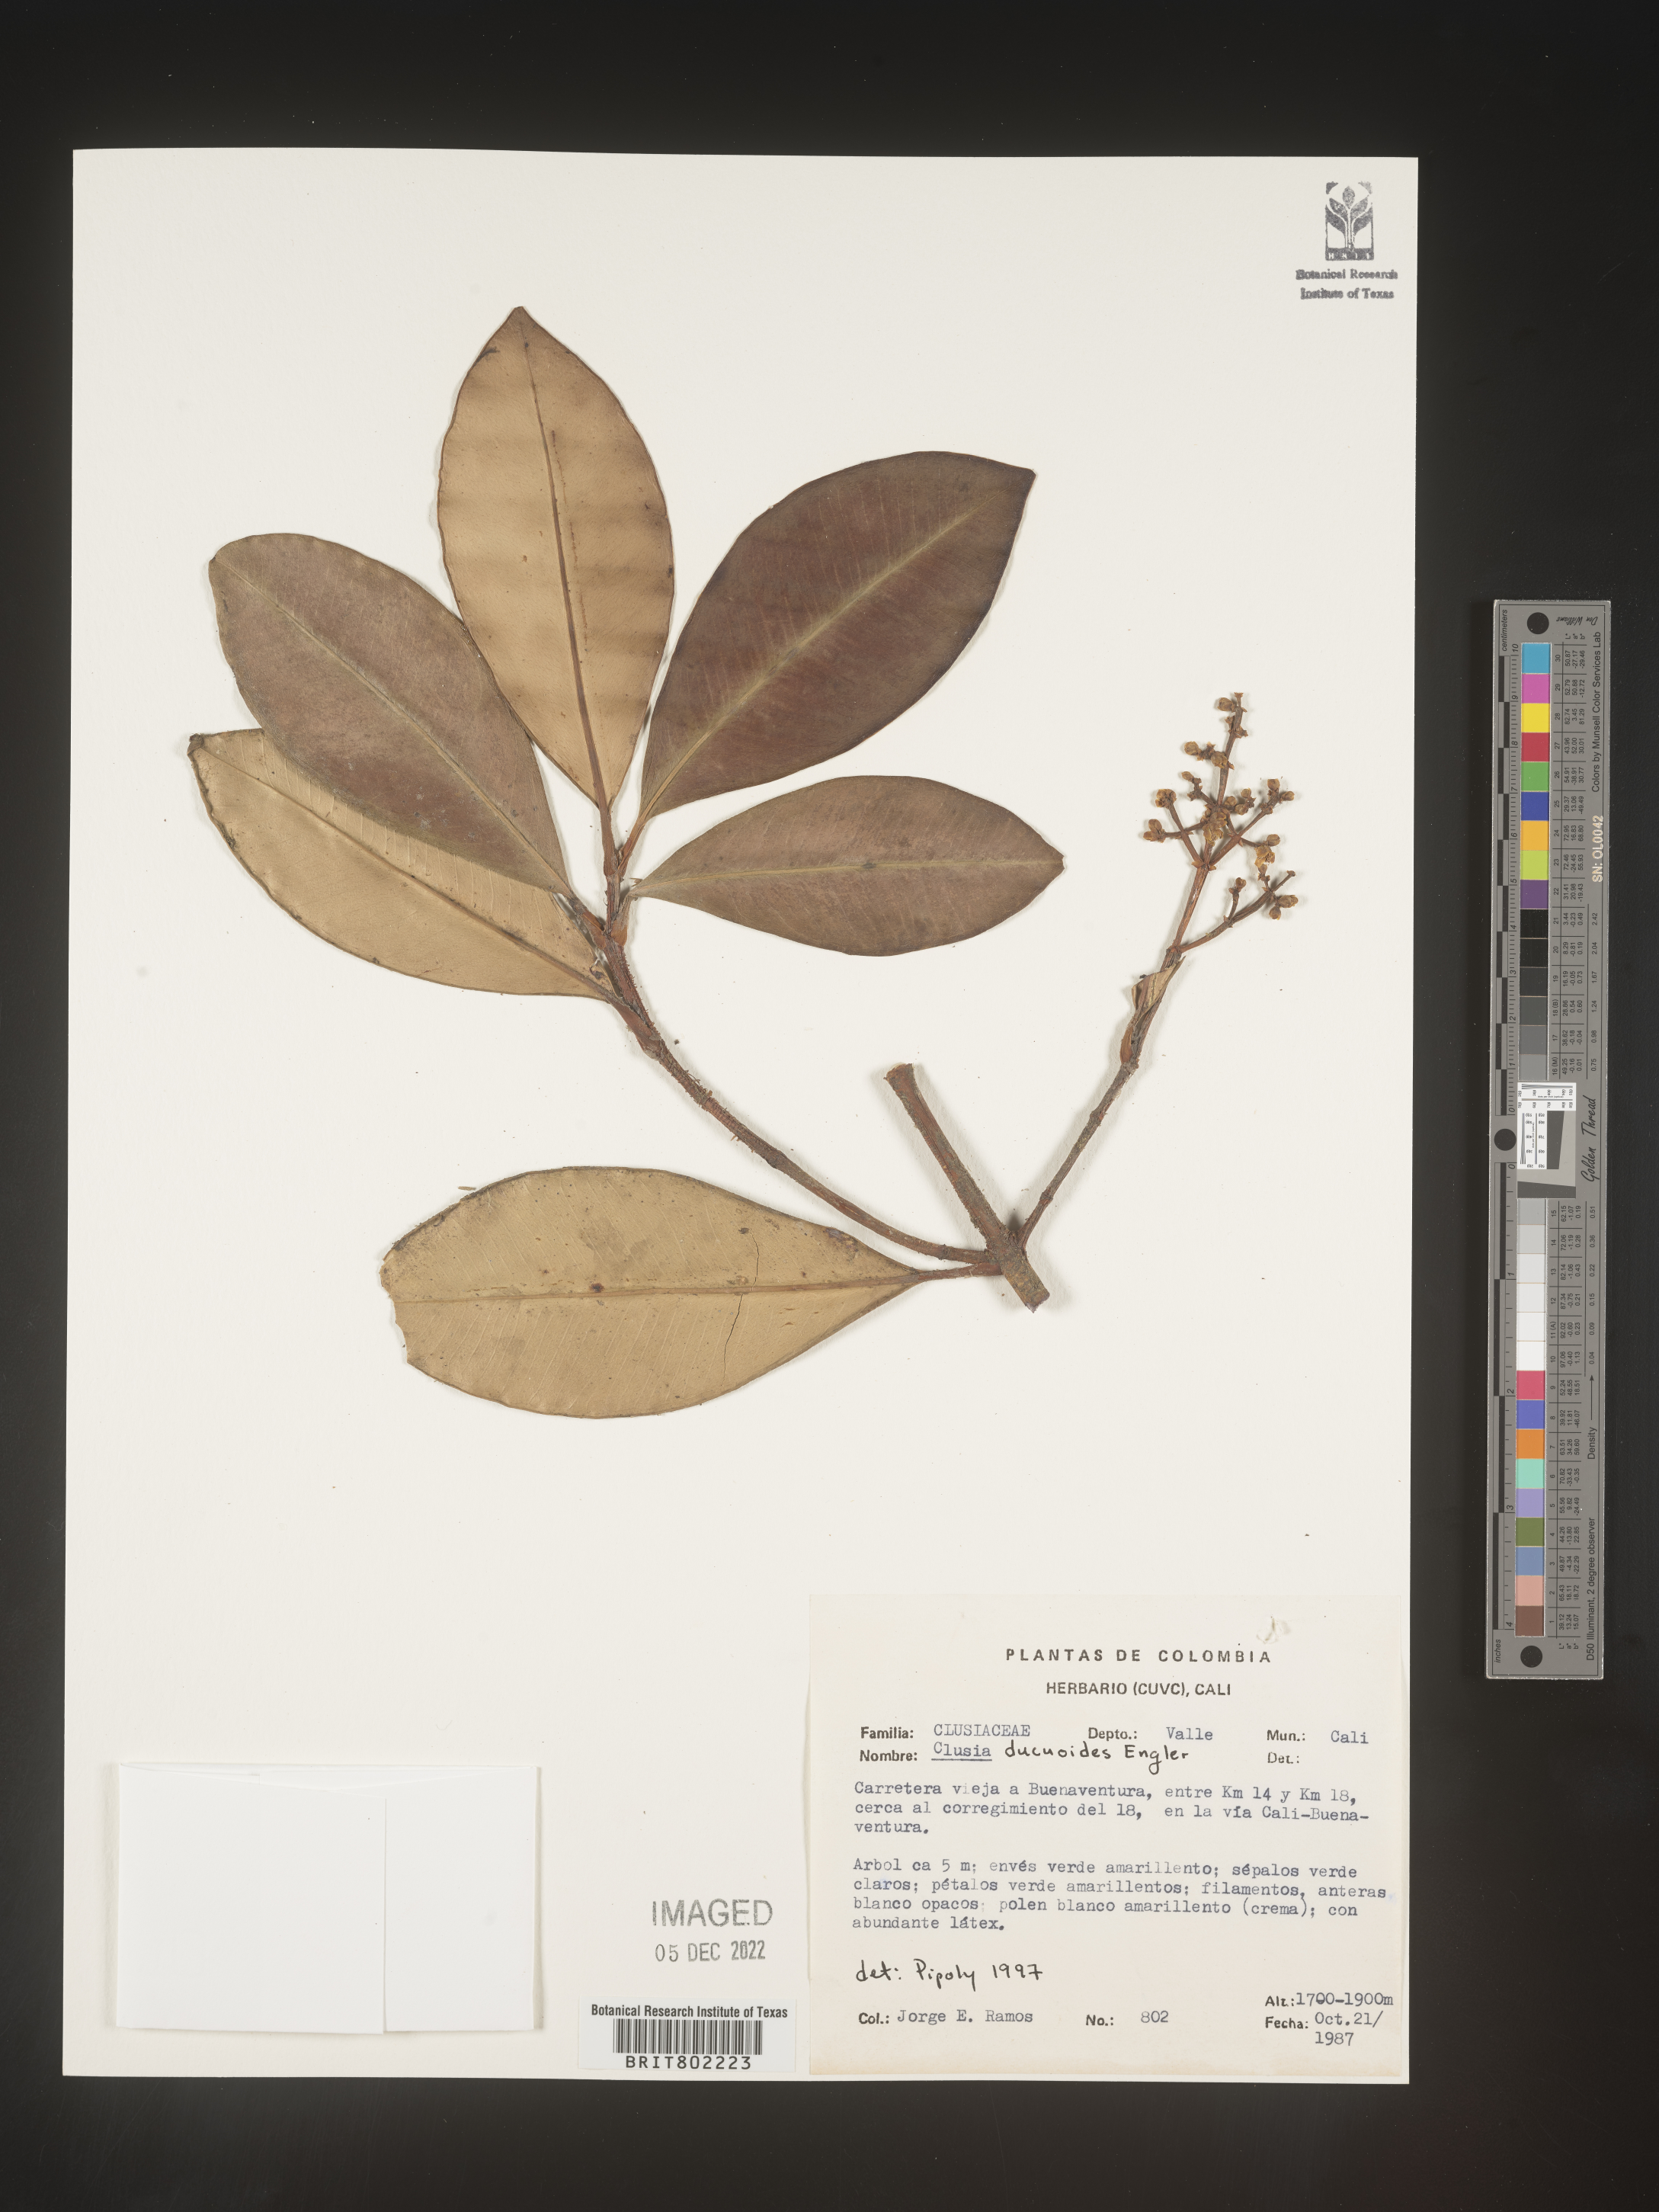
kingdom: Plantae
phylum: Tracheophyta
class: Magnoliopsida
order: Malpighiales
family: Clusiaceae
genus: Clusia
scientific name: Clusia ducuoides
